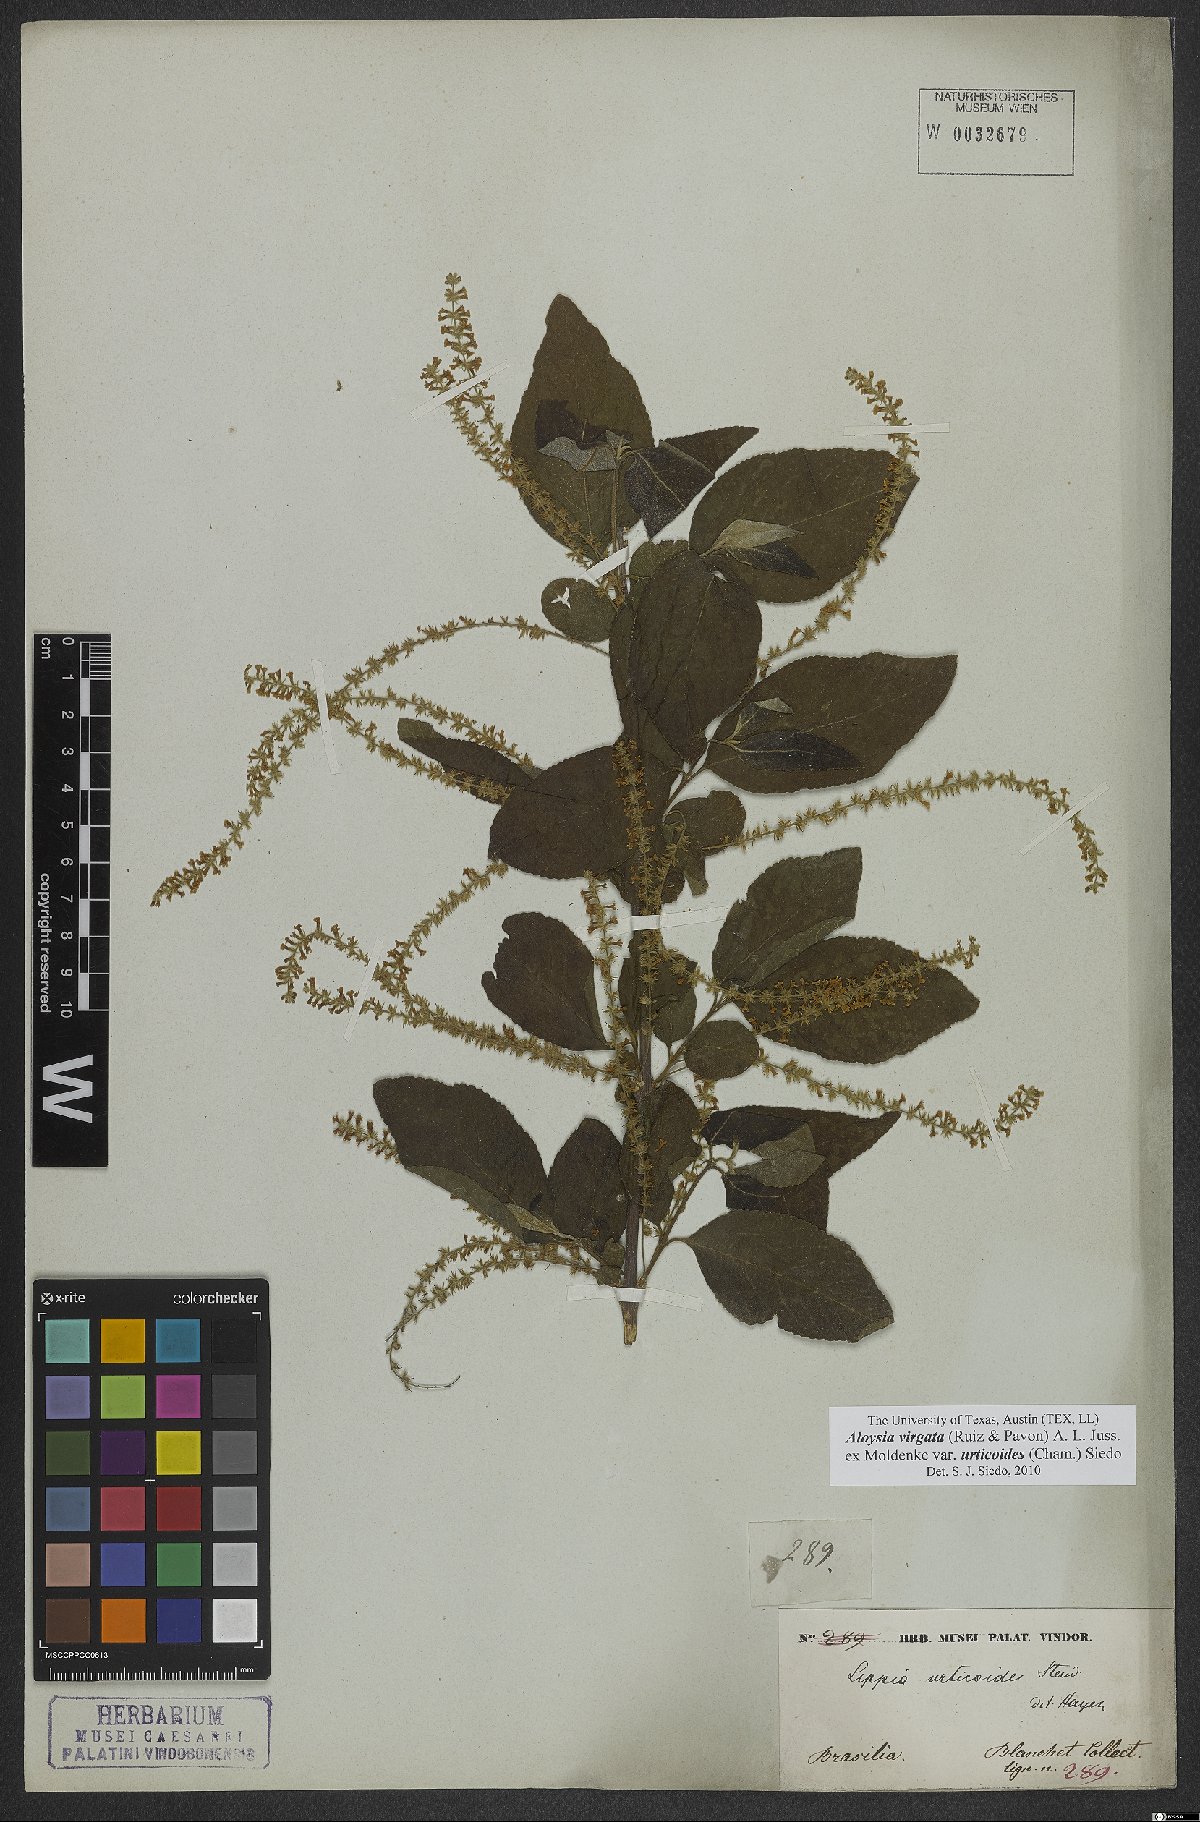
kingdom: Plantae
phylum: Tracheophyta
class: Magnoliopsida
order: Lamiales
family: Verbenaceae
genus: Aloysia
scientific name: Aloysia virgata
